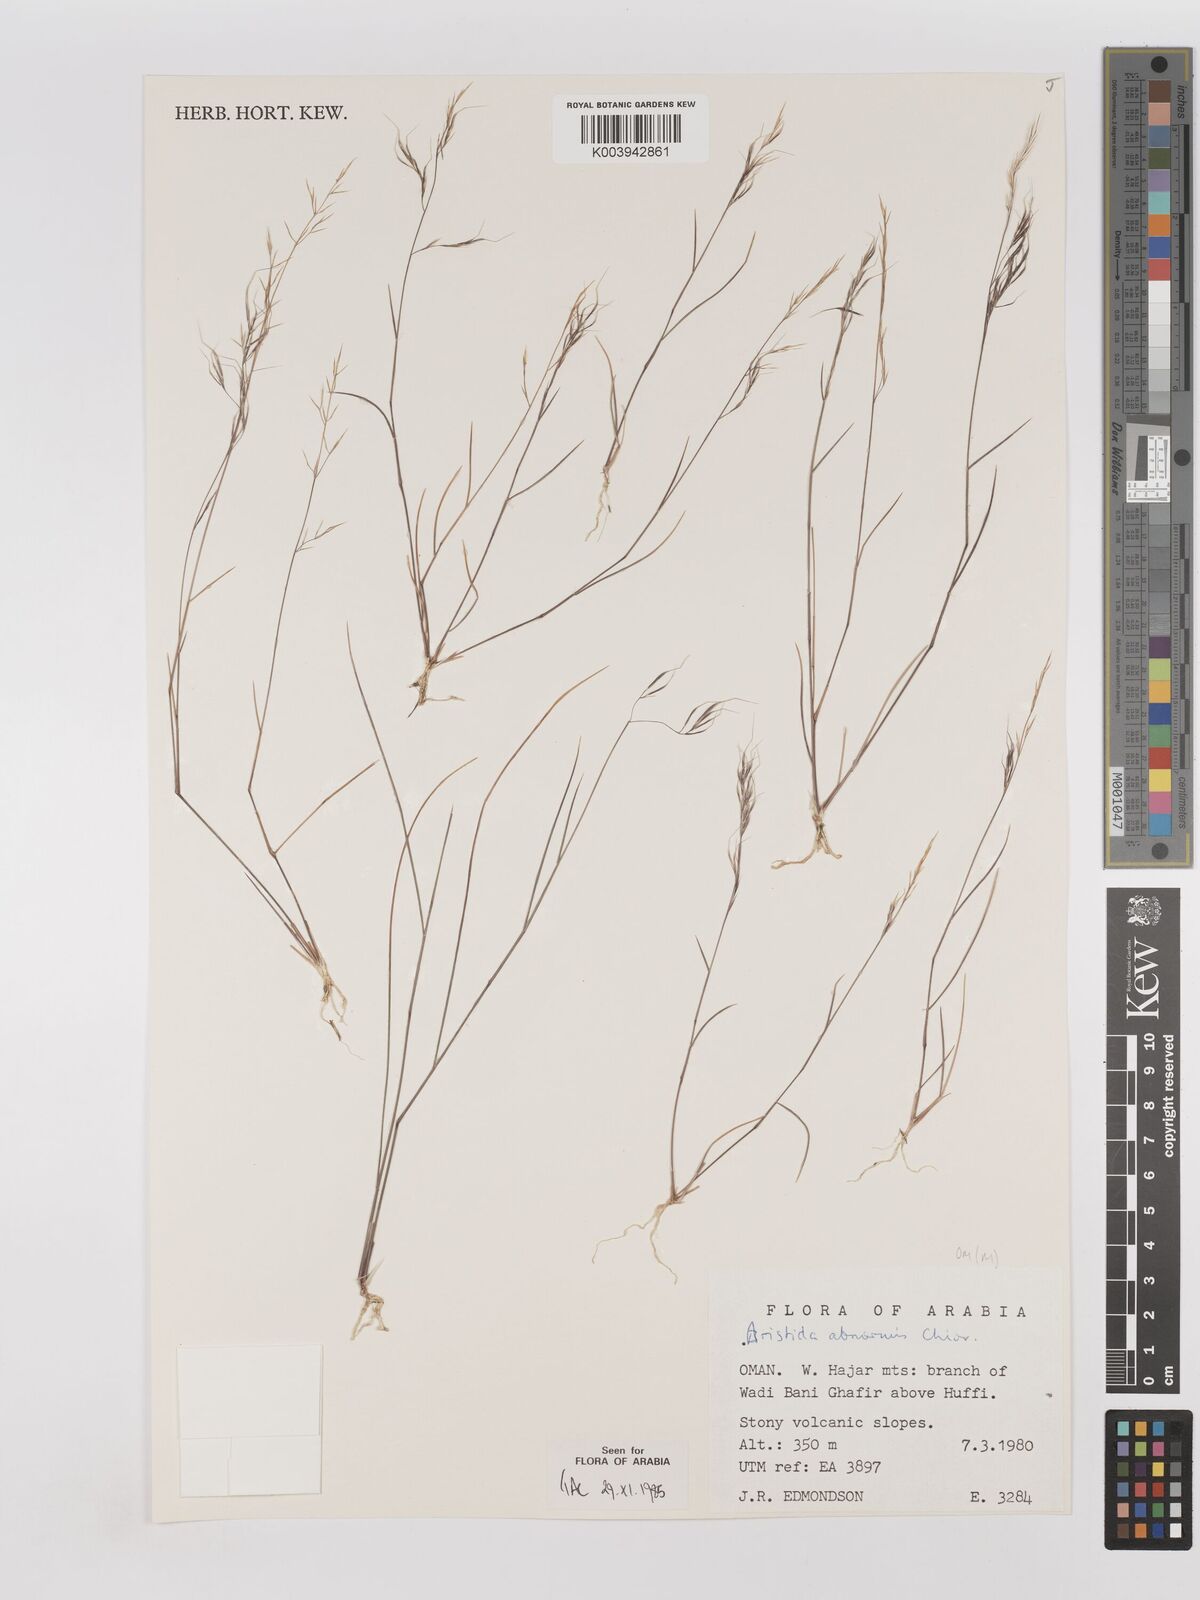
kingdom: Plantae
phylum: Tracheophyta
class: Liliopsida
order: Poales
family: Poaceae
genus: Aristida
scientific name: Aristida abnormis
